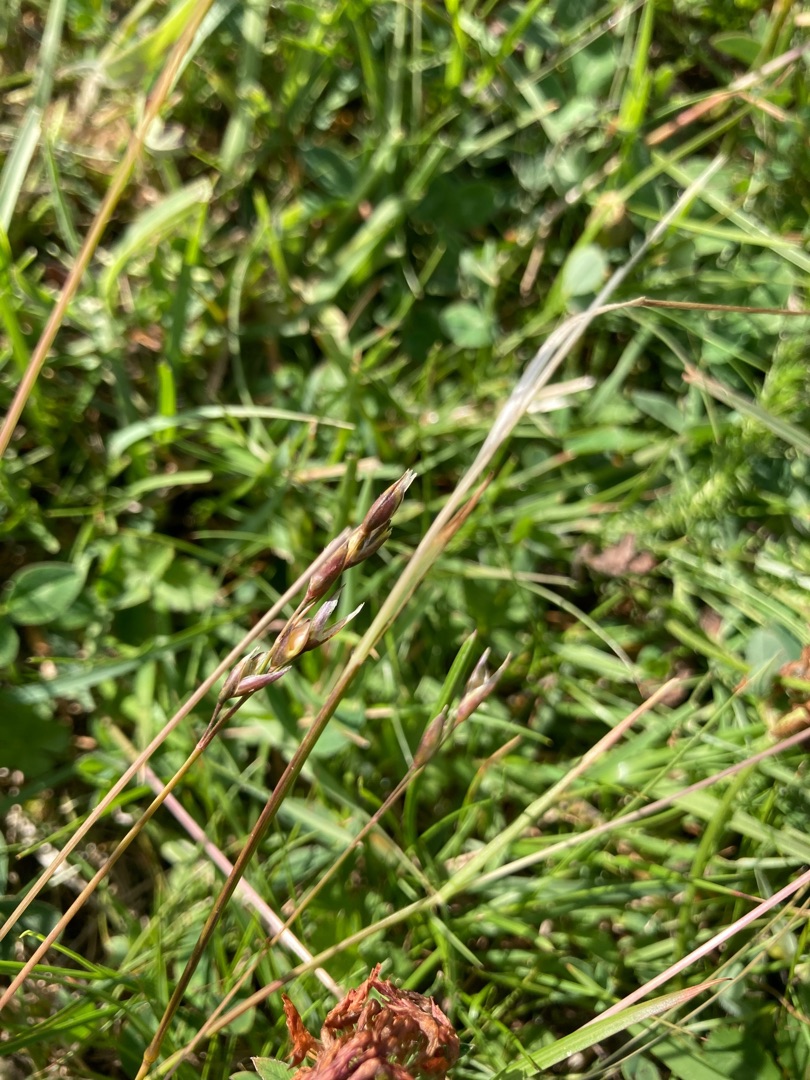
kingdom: Plantae
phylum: Tracheophyta
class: Liliopsida
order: Poales
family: Poaceae
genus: Danthonia
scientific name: Danthonia decumbens
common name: Tandbælg
